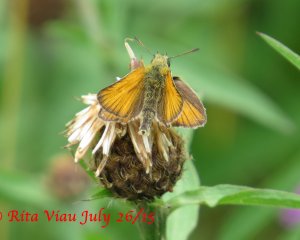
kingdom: Animalia
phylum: Arthropoda
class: Insecta
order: Lepidoptera
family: Hesperiidae
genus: Thymelicus
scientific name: Thymelicus lineola
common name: European Skipper
